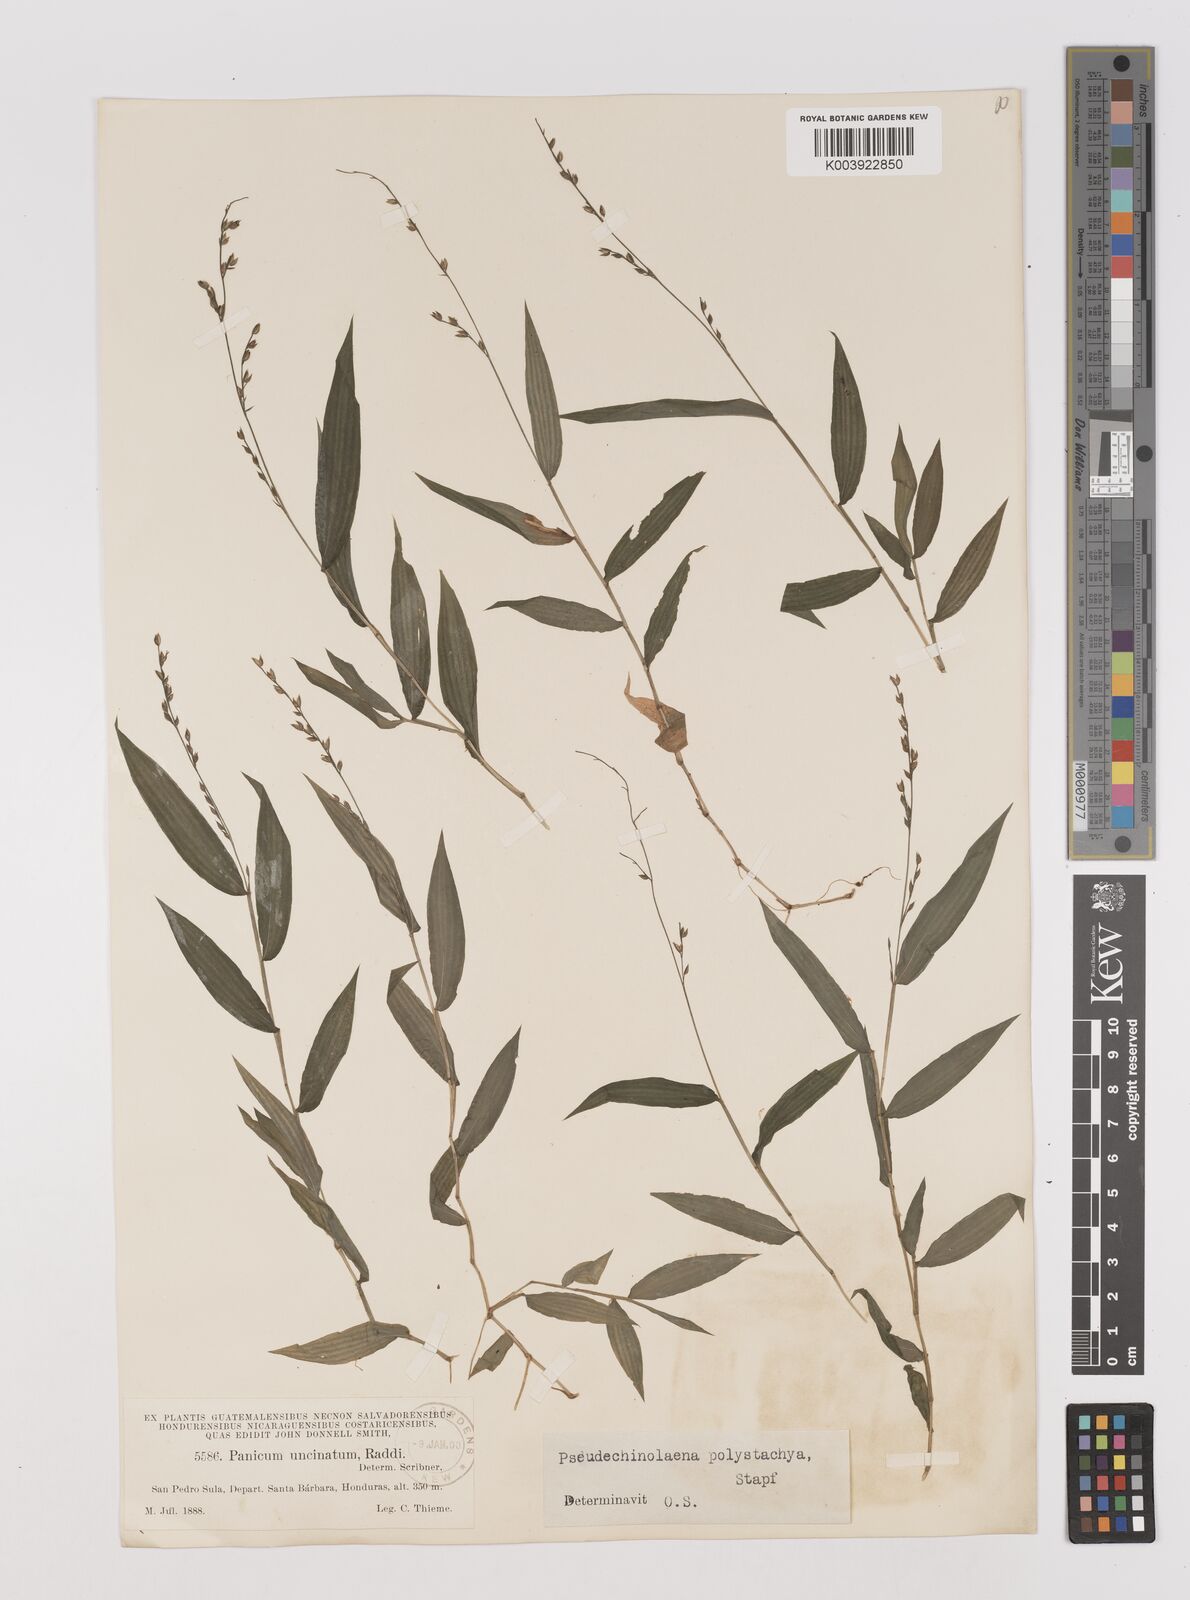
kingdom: Plantae
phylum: Tracheophyta
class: Liliopsida
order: Poales
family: Poaceae
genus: Pseudechinolaena
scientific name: Pseudechinolaena polystachya
